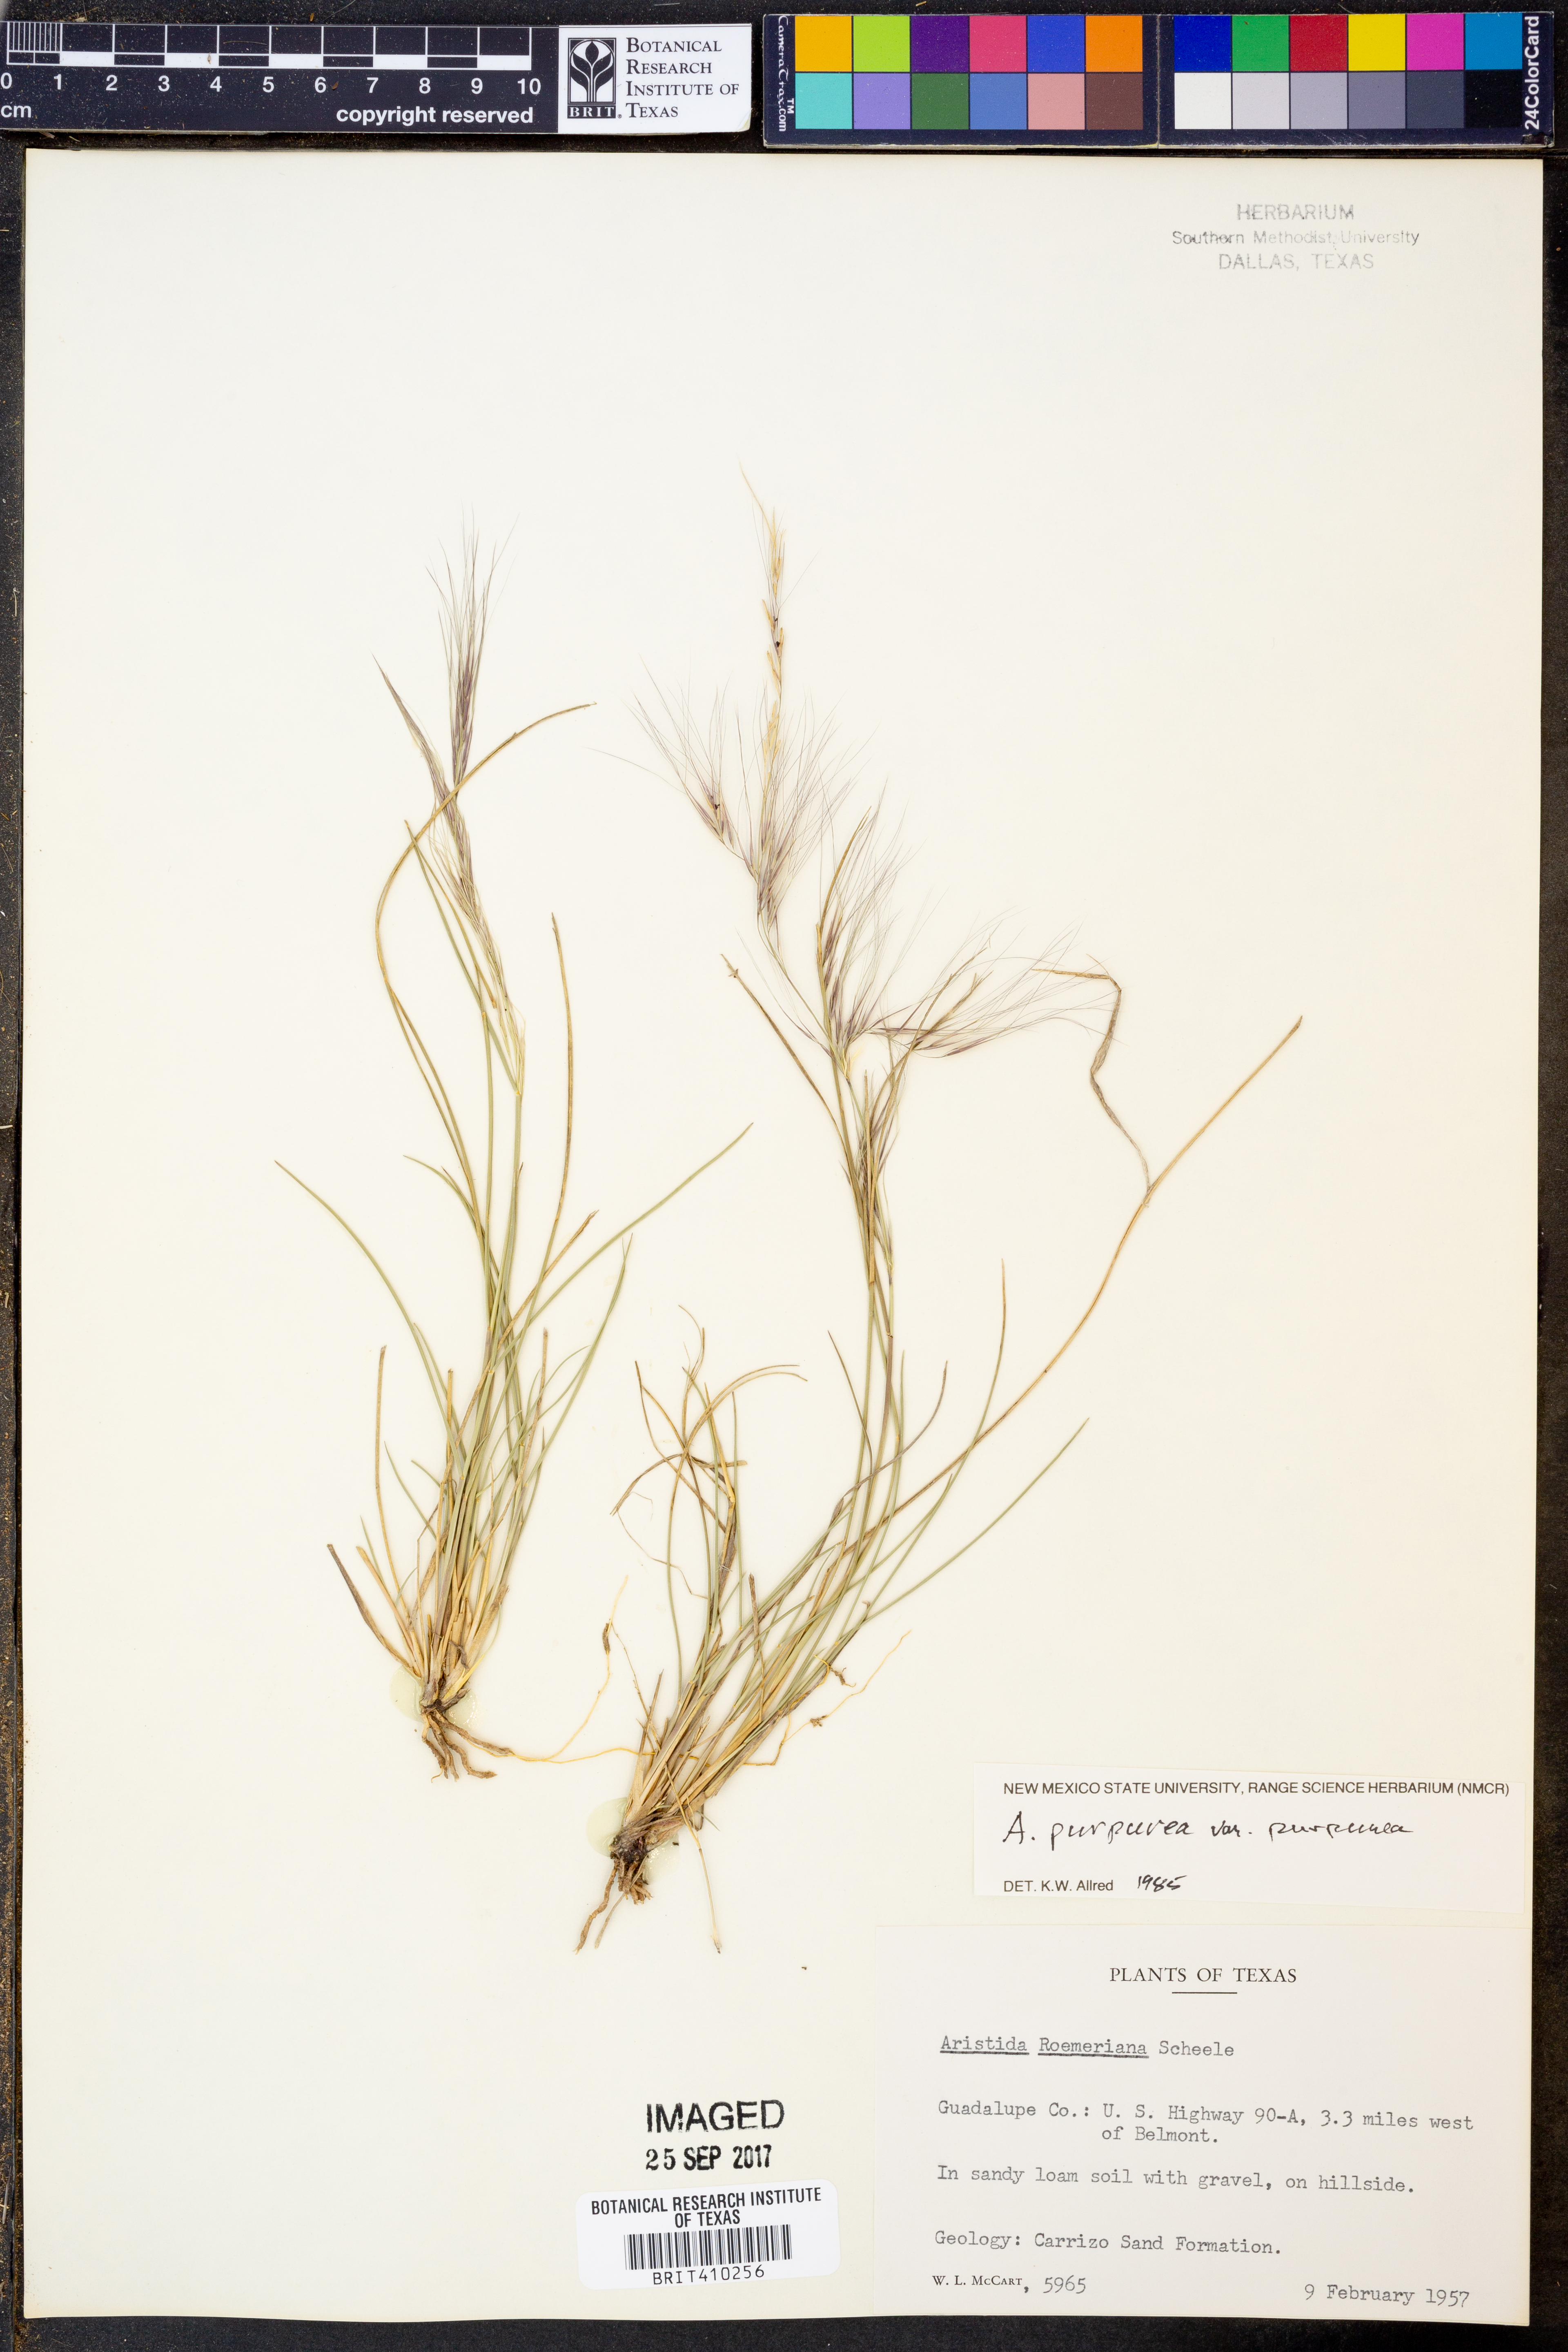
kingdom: Plantae
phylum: Tracheophyta
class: Liliopsida
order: Poales
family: Poaceae
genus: Aristida
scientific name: Aristida purpurea
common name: Purple threeawn
